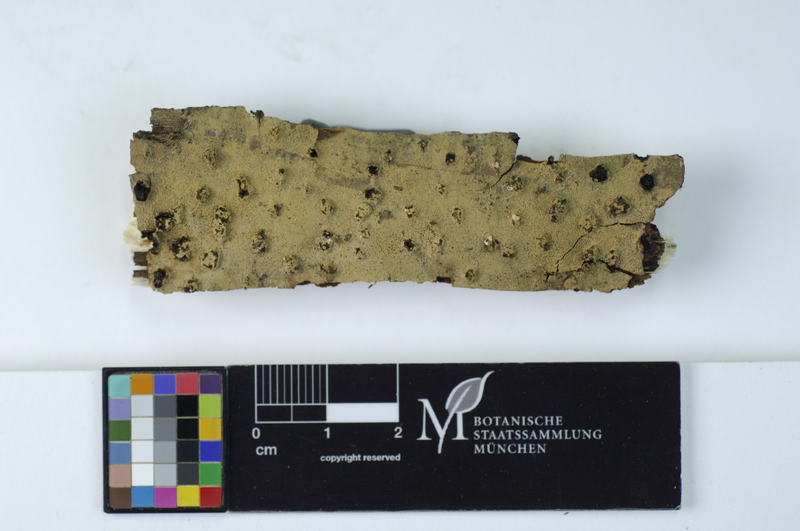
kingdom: Fungi
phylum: Basidiomycota
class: Agaricomycetes
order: Cantharellales
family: Botryobasidiaceae
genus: Botryobasidium
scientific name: Botryobasidium pruinatum
